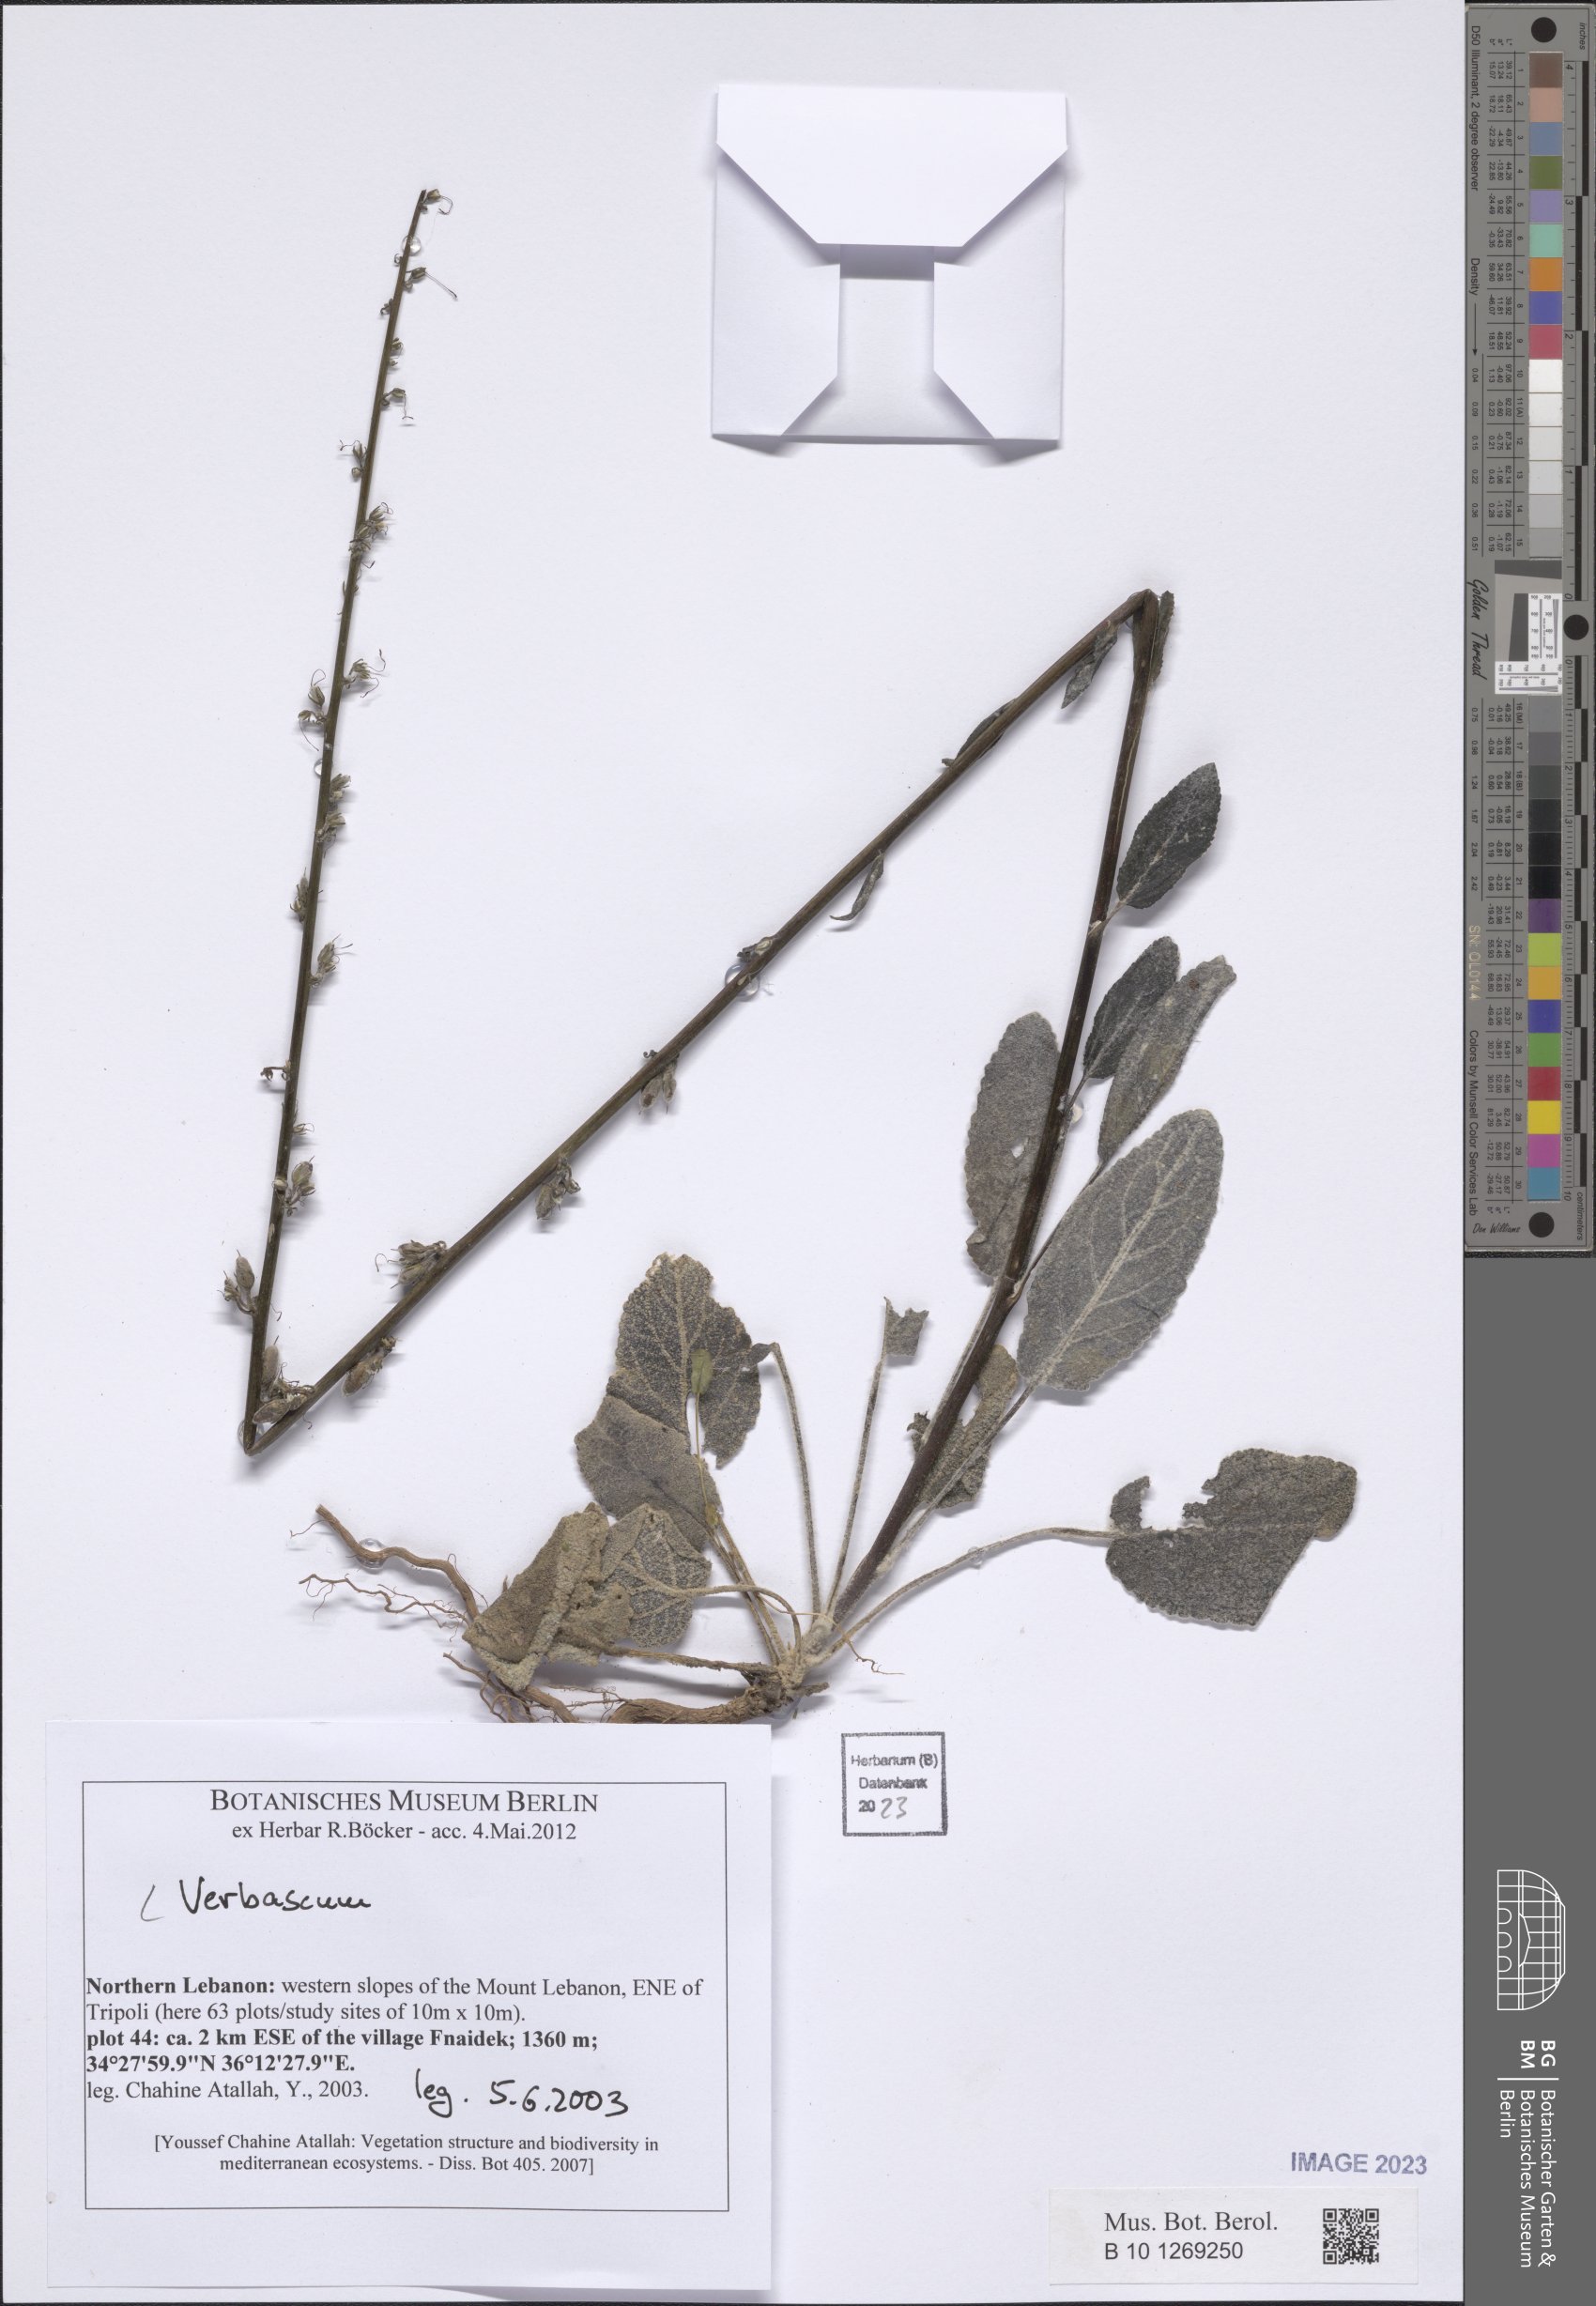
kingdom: Plantae
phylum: Tracheophyta
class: Magnoliopsida
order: Lamiales
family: Scrophulariaceae
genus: Verbascum
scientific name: Verbascum
